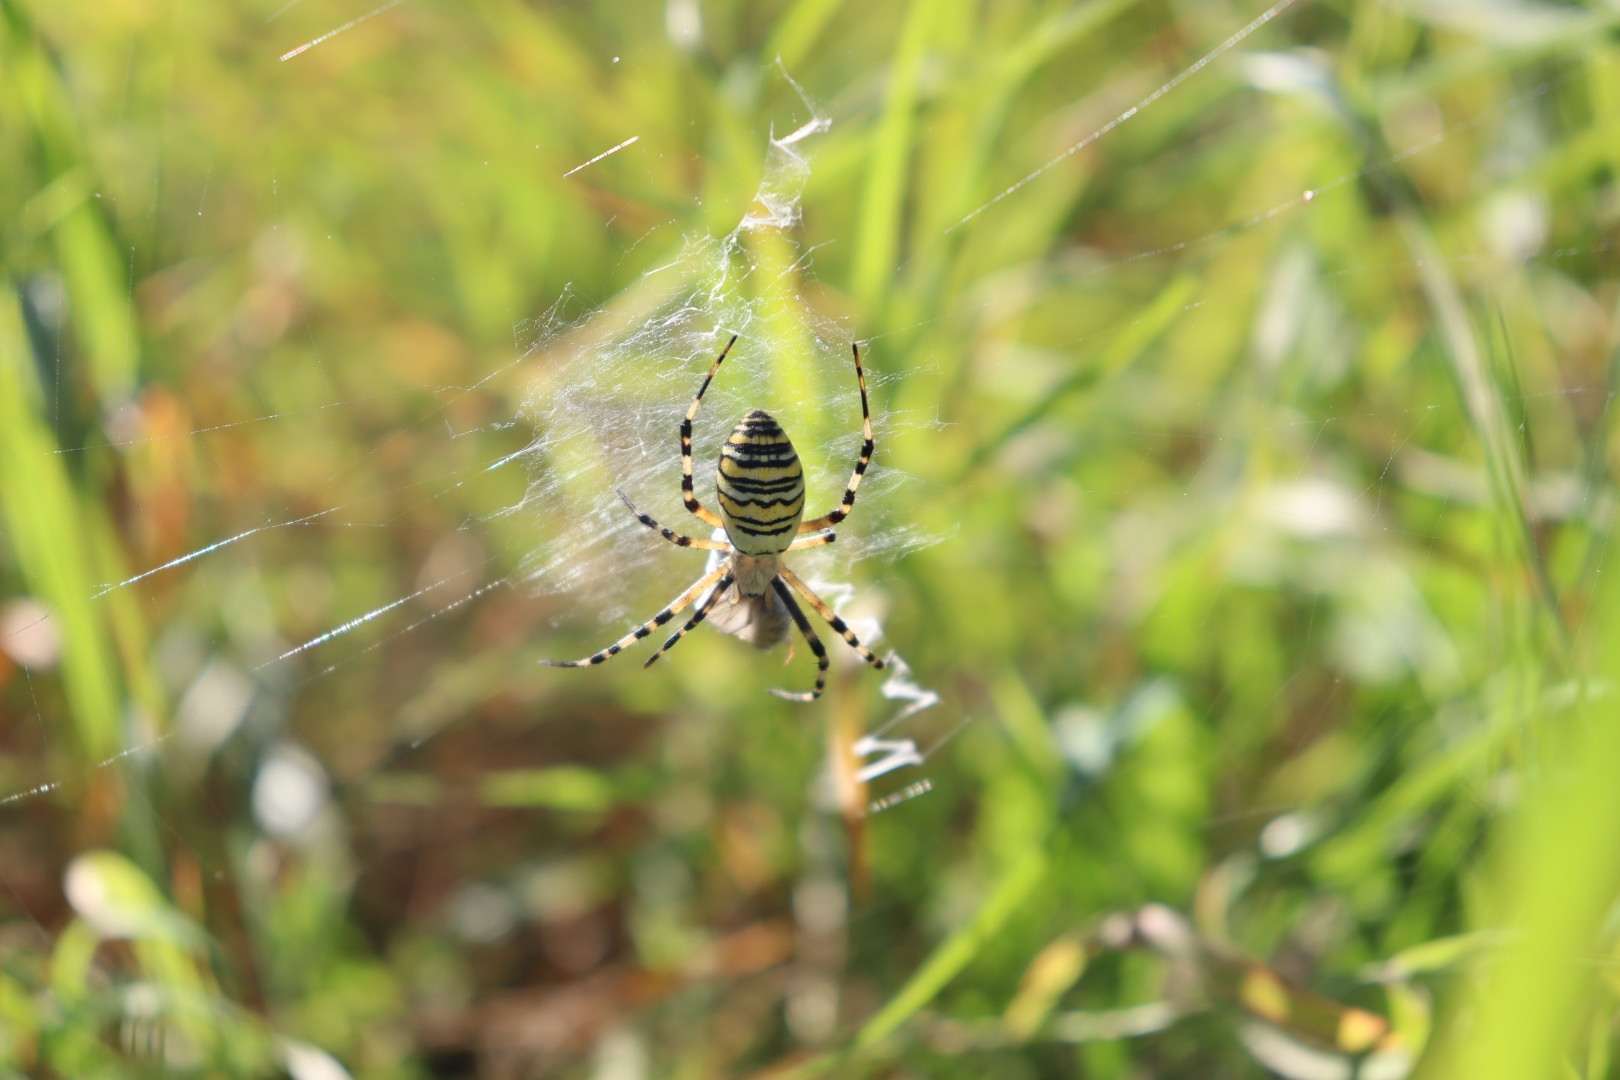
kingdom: Animalia
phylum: Arthropoda
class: Arachnida
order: Araneae
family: Araneidae
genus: Argiope
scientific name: Argiope bruennichi
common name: Hvepseedderkop
